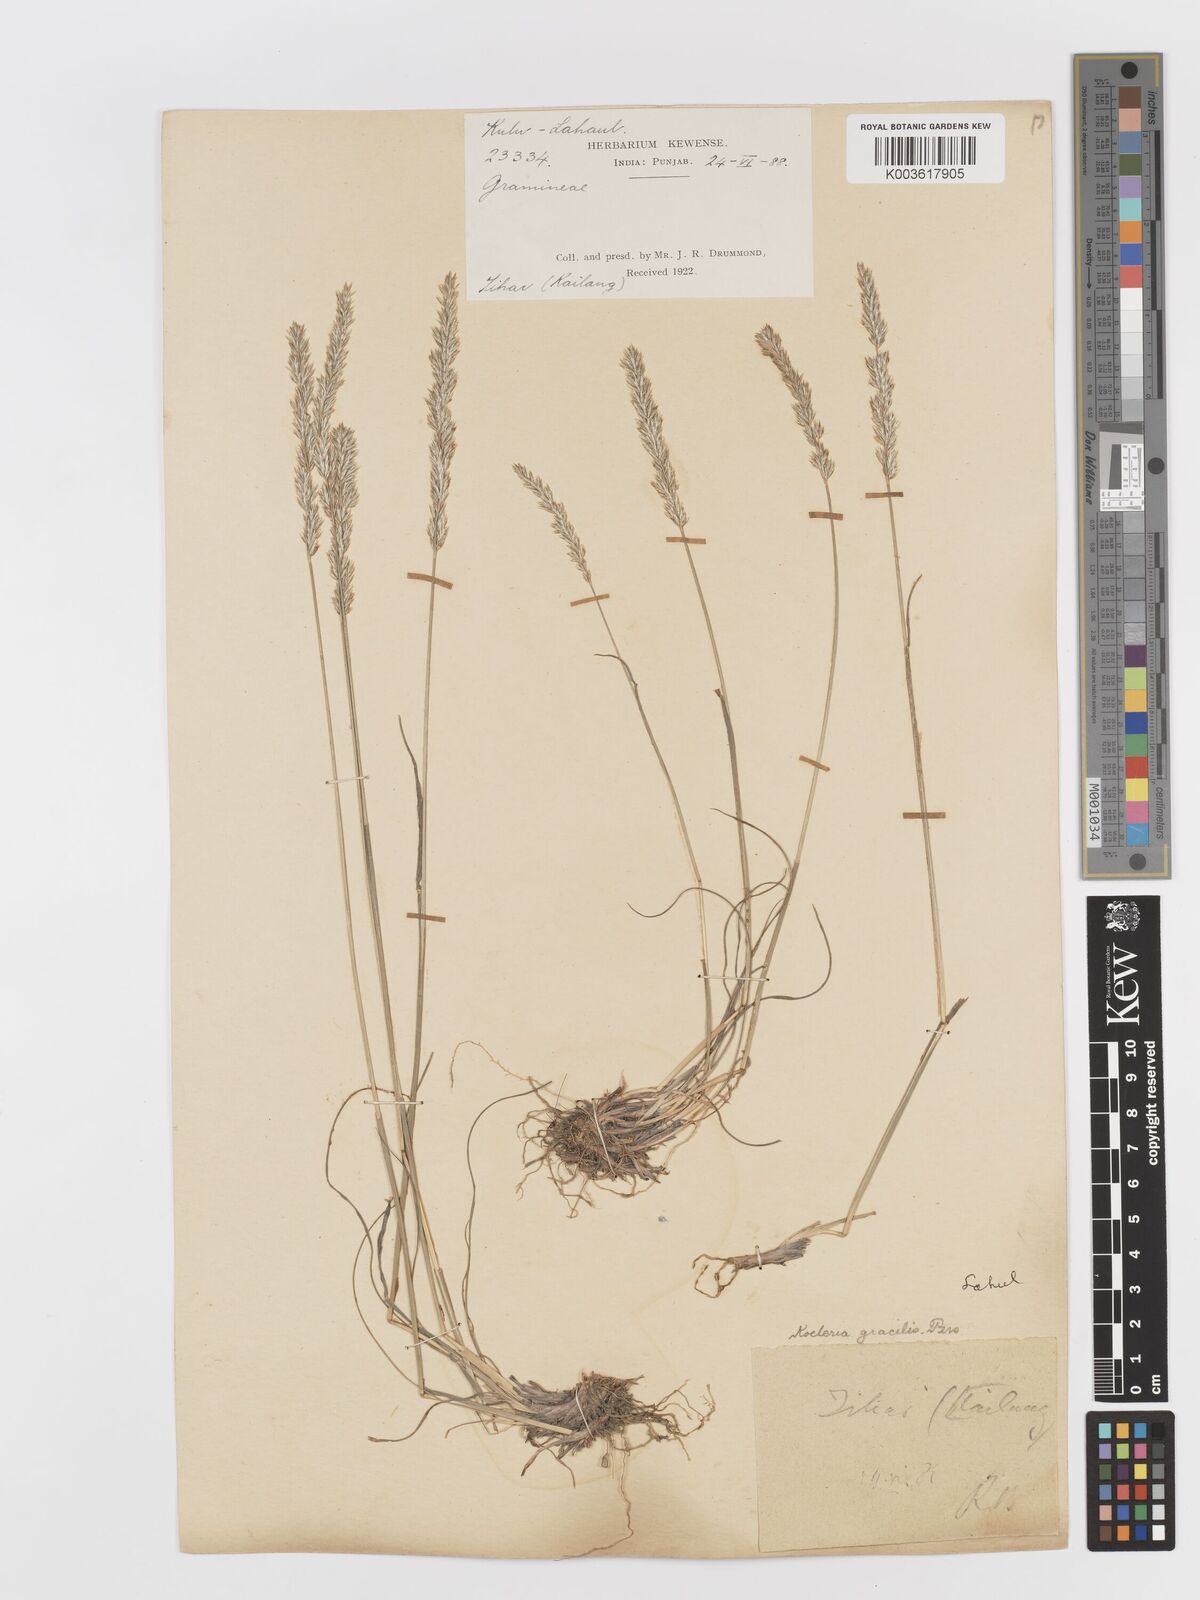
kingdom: Plantae
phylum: Tracheophyta
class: Liliopsida
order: Poales
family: Poaceae
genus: Koeleria
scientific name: Koeleria
